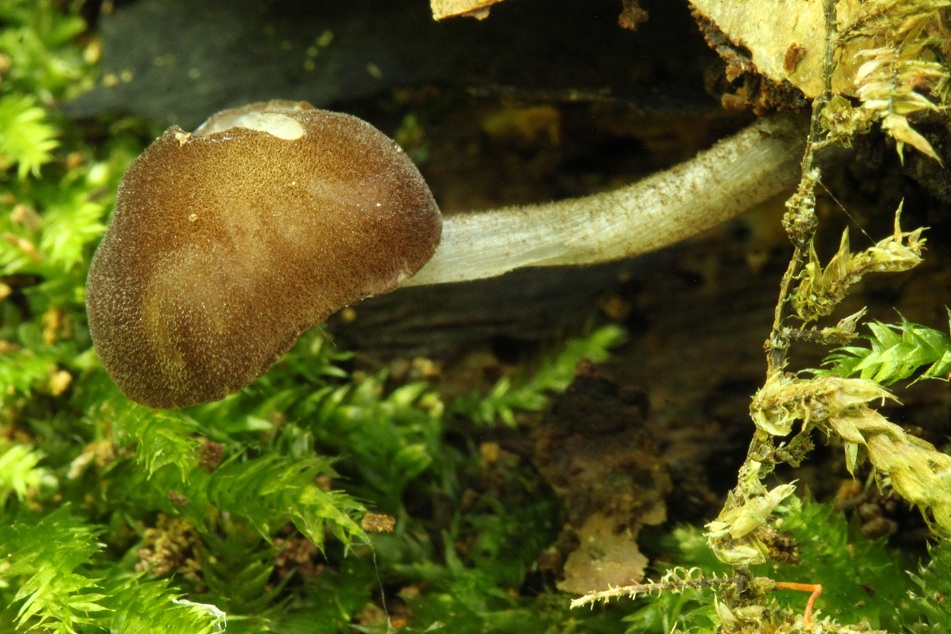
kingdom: Fungi
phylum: Basidiomycota
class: Agaricomycetes
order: Agaricales
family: Pluteaceae
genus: Pluteus
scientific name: Pluteus podospileus
